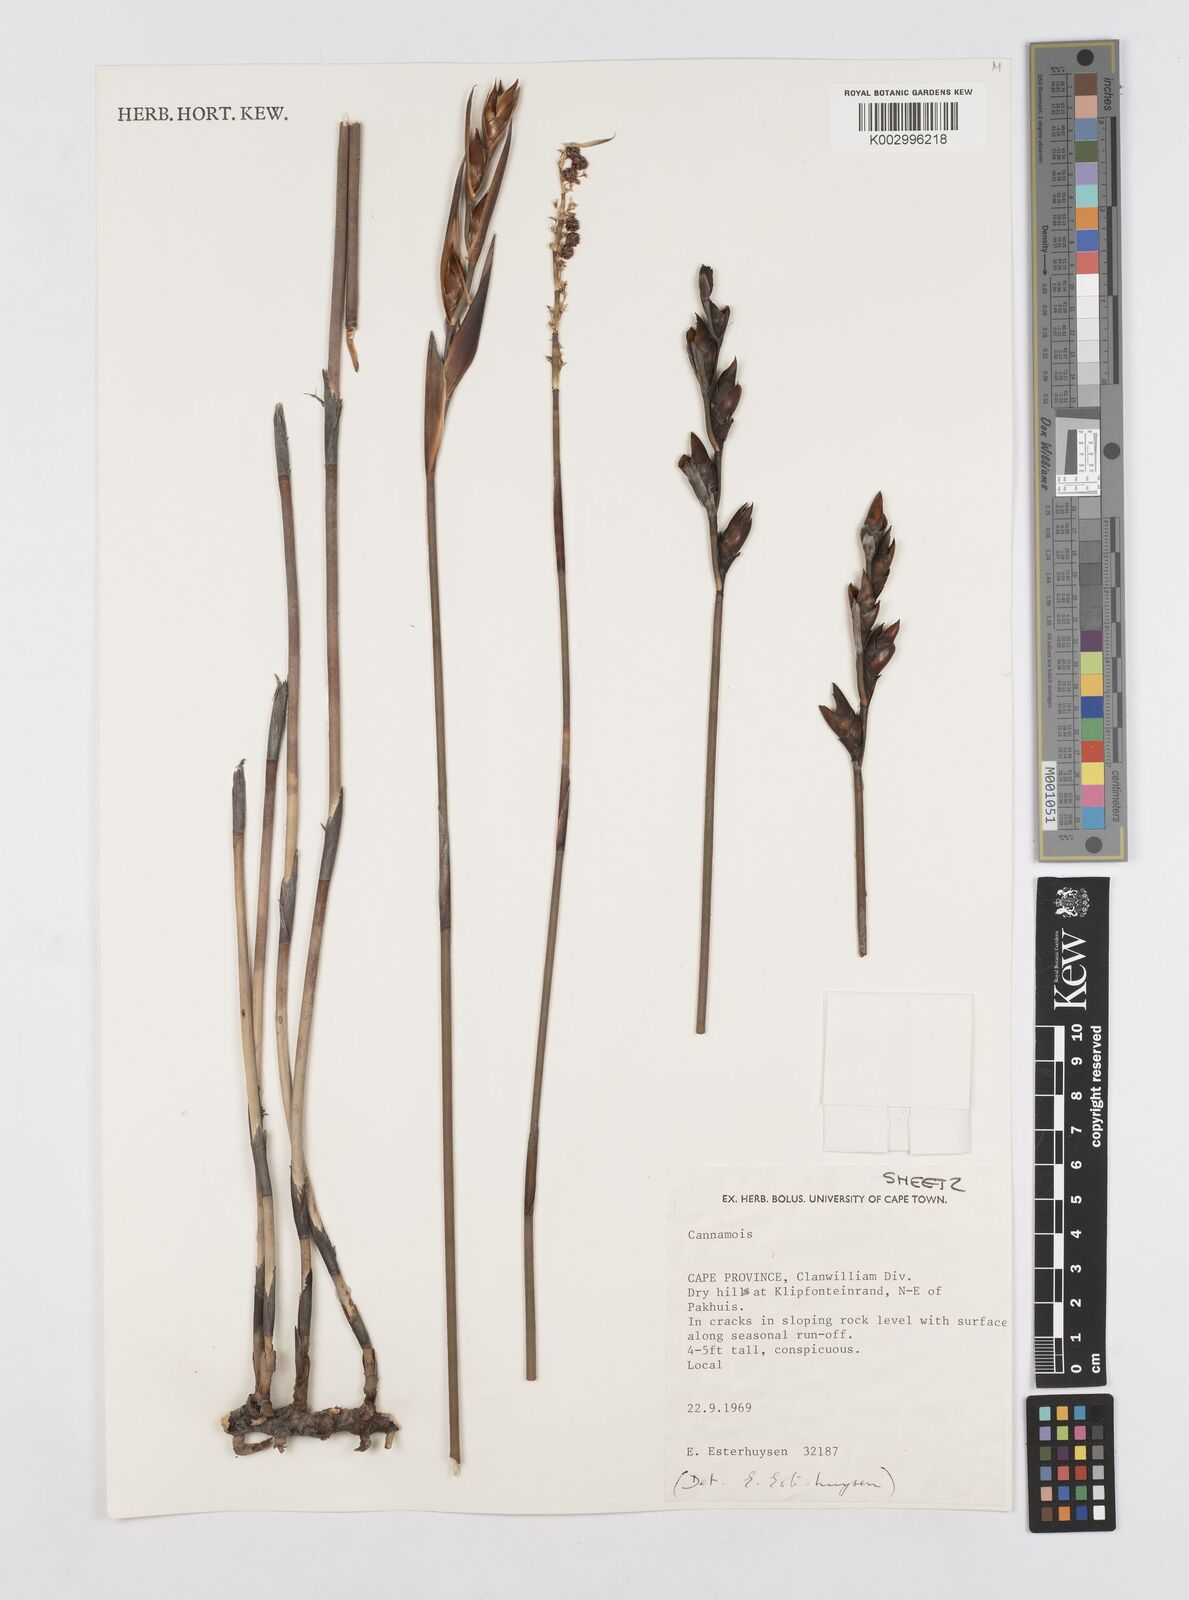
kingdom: Plantae
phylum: Tracheophyta
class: Liliopsida
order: Poales
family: Restionaceae
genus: Cannomois
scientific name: Cannomois taylorii
